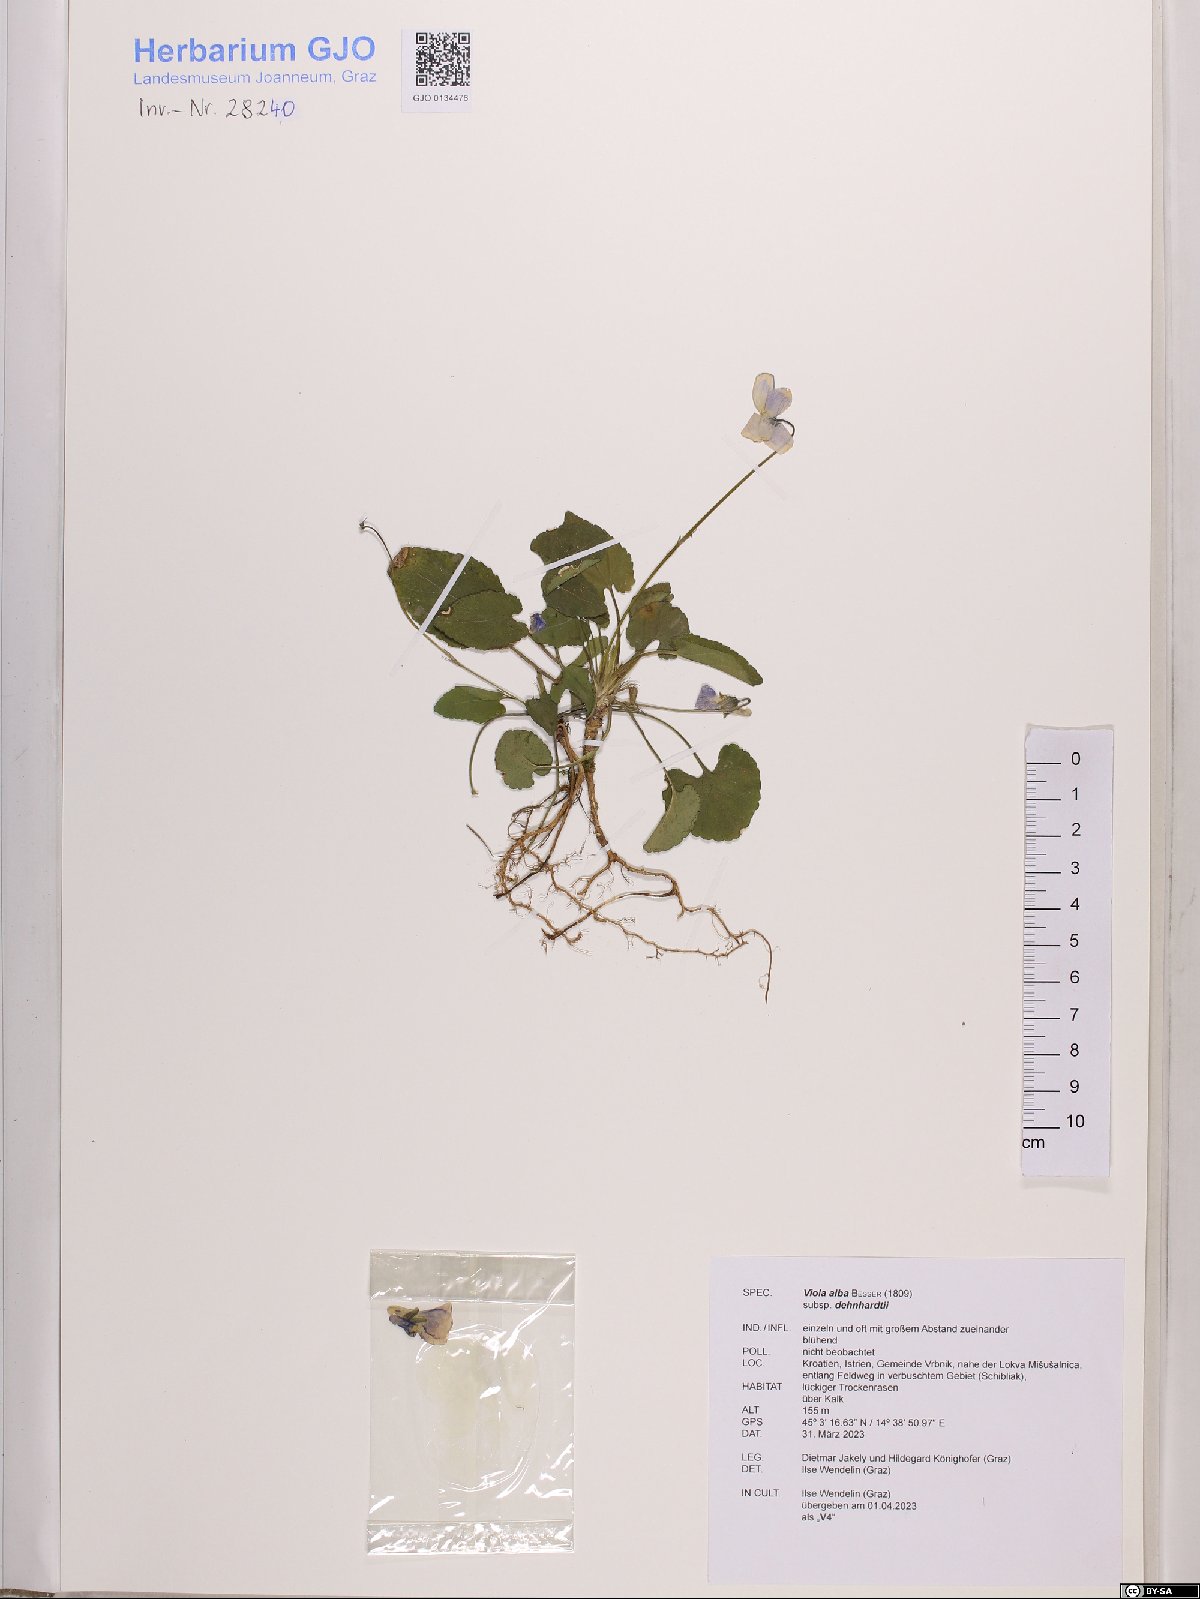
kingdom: Plantae
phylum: Tracheophyta
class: Magnoliopsida
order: Malpighiales
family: Violaceae
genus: Viola
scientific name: Viola alba
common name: White violet
